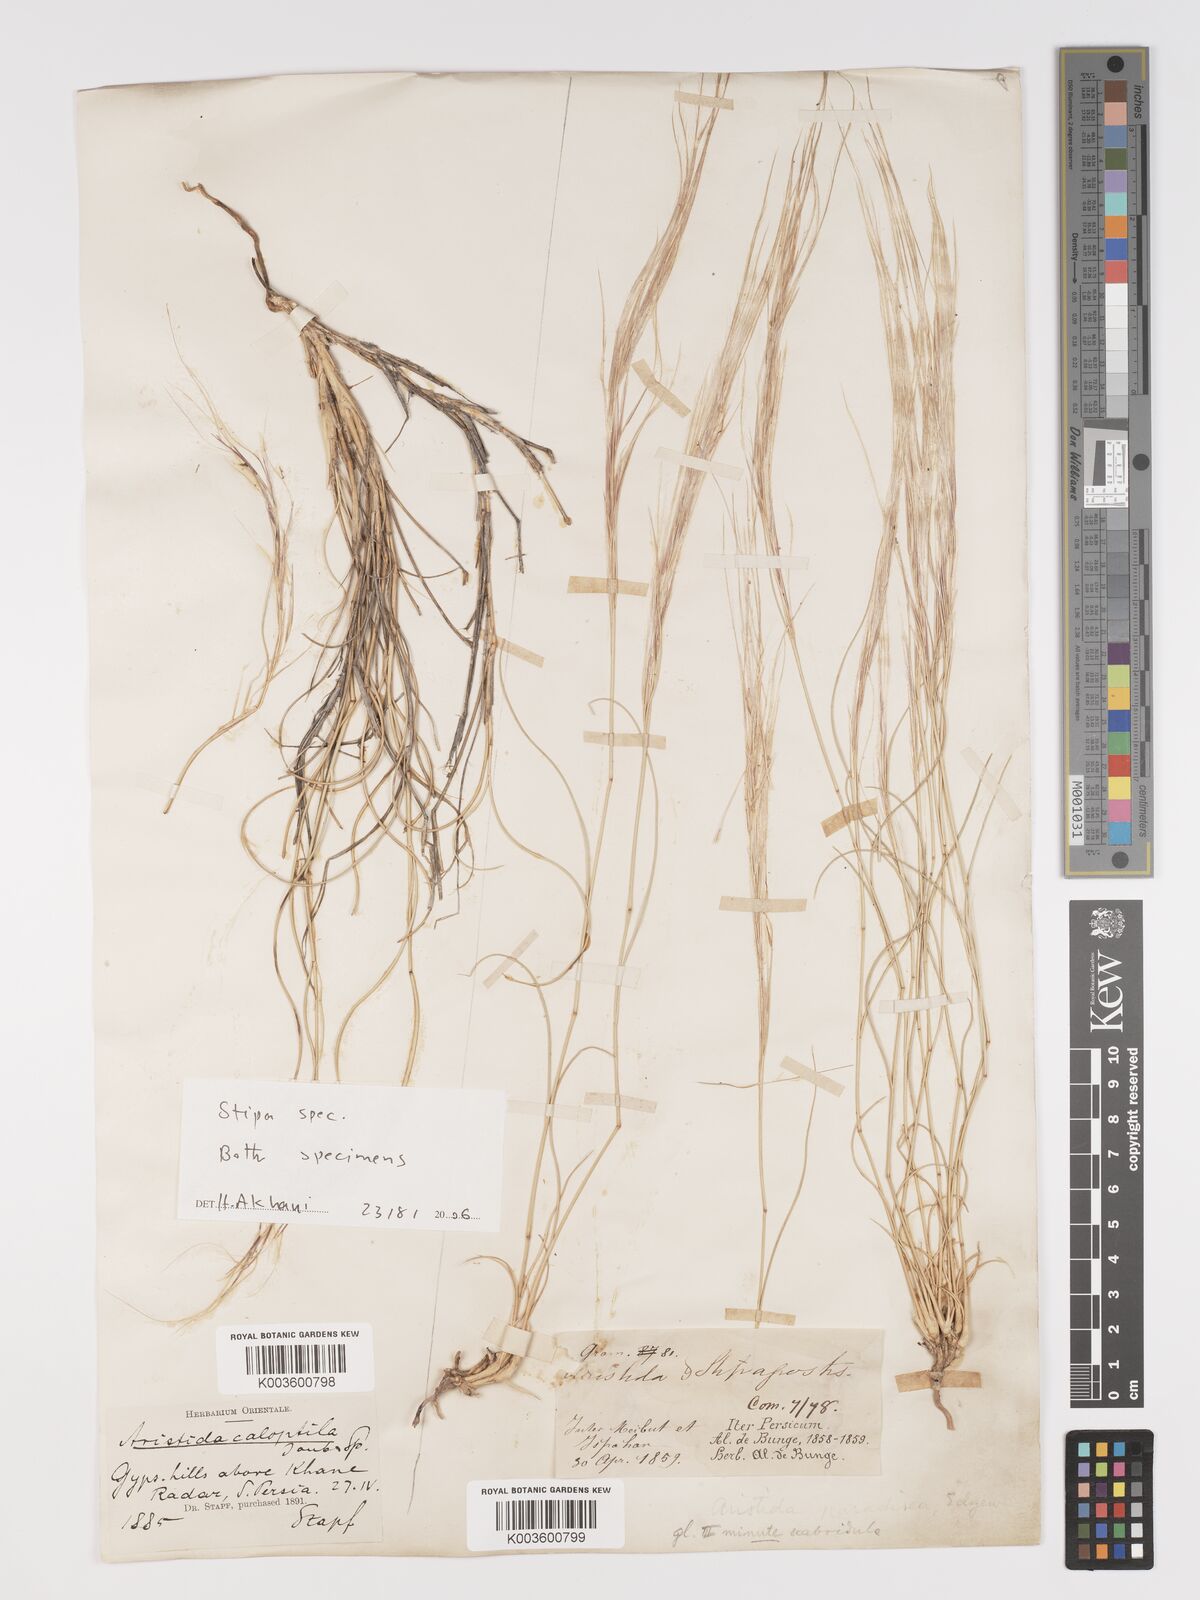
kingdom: Plantae
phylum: Tracheophyta
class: Liliopsida
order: Poales
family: Poaceae
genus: Stipa
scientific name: Stipa
